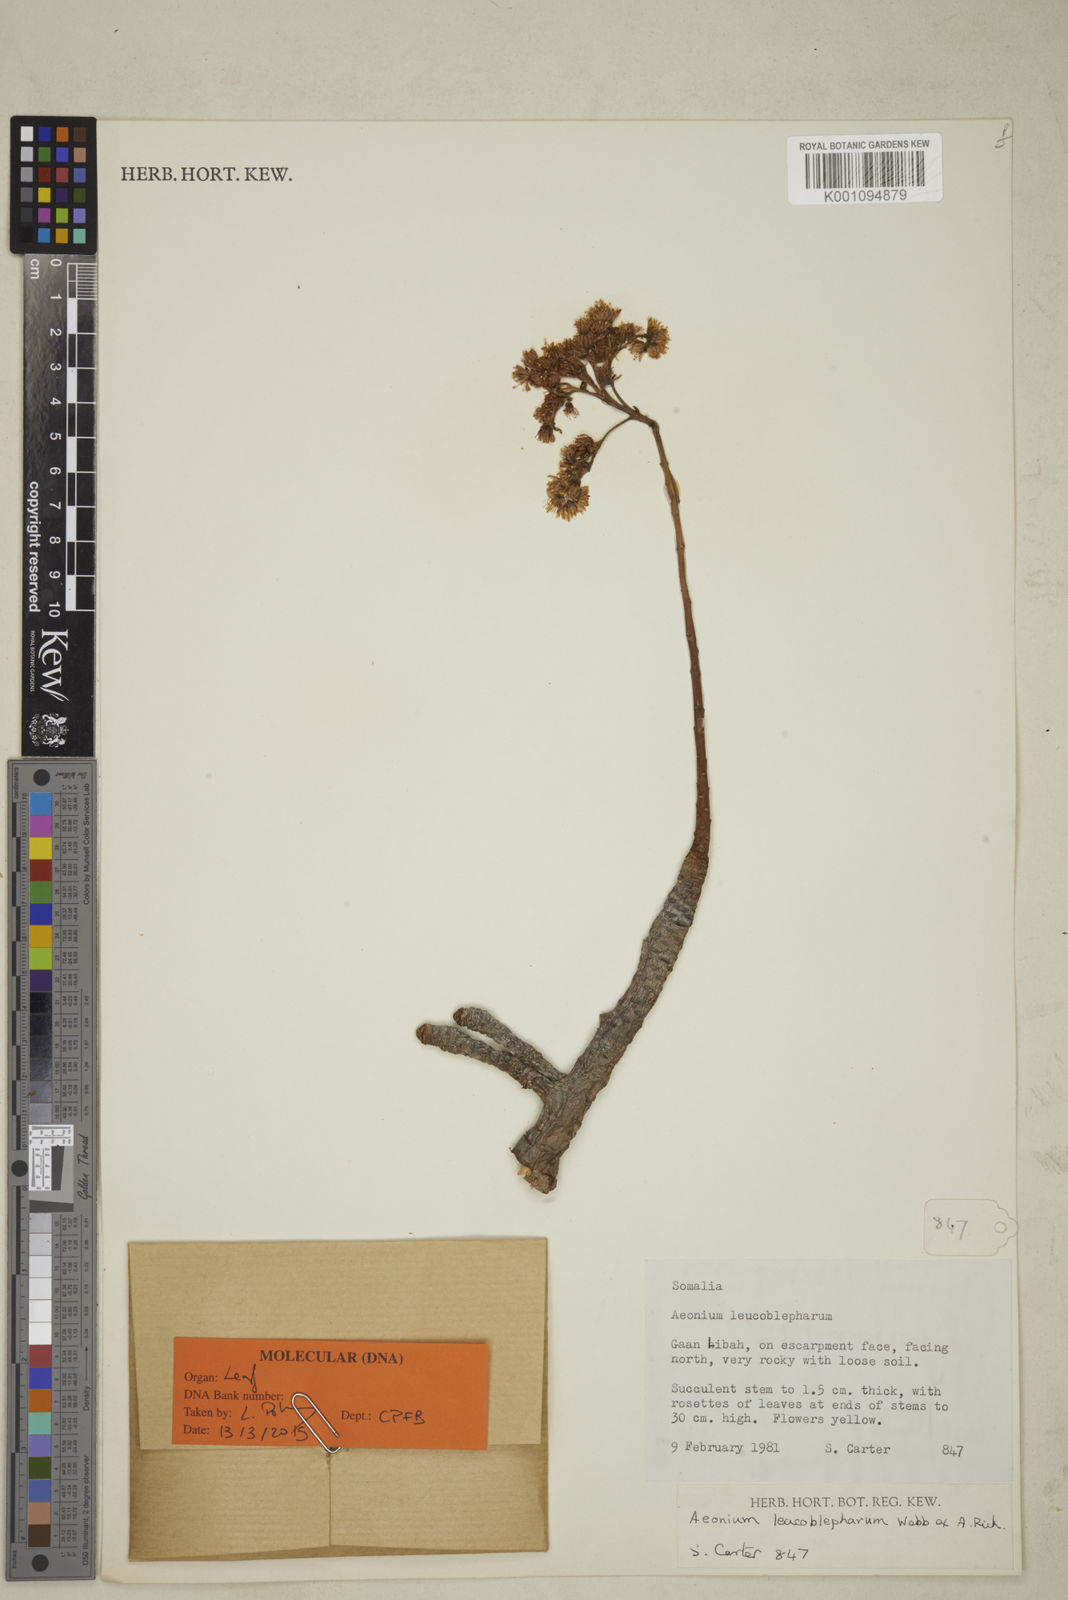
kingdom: Plantae
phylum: Tracheophyta
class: Magnoliopsida
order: Saxifragales
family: Crassulaceae
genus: Aeonium
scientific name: Aeonium leucoblepharum
